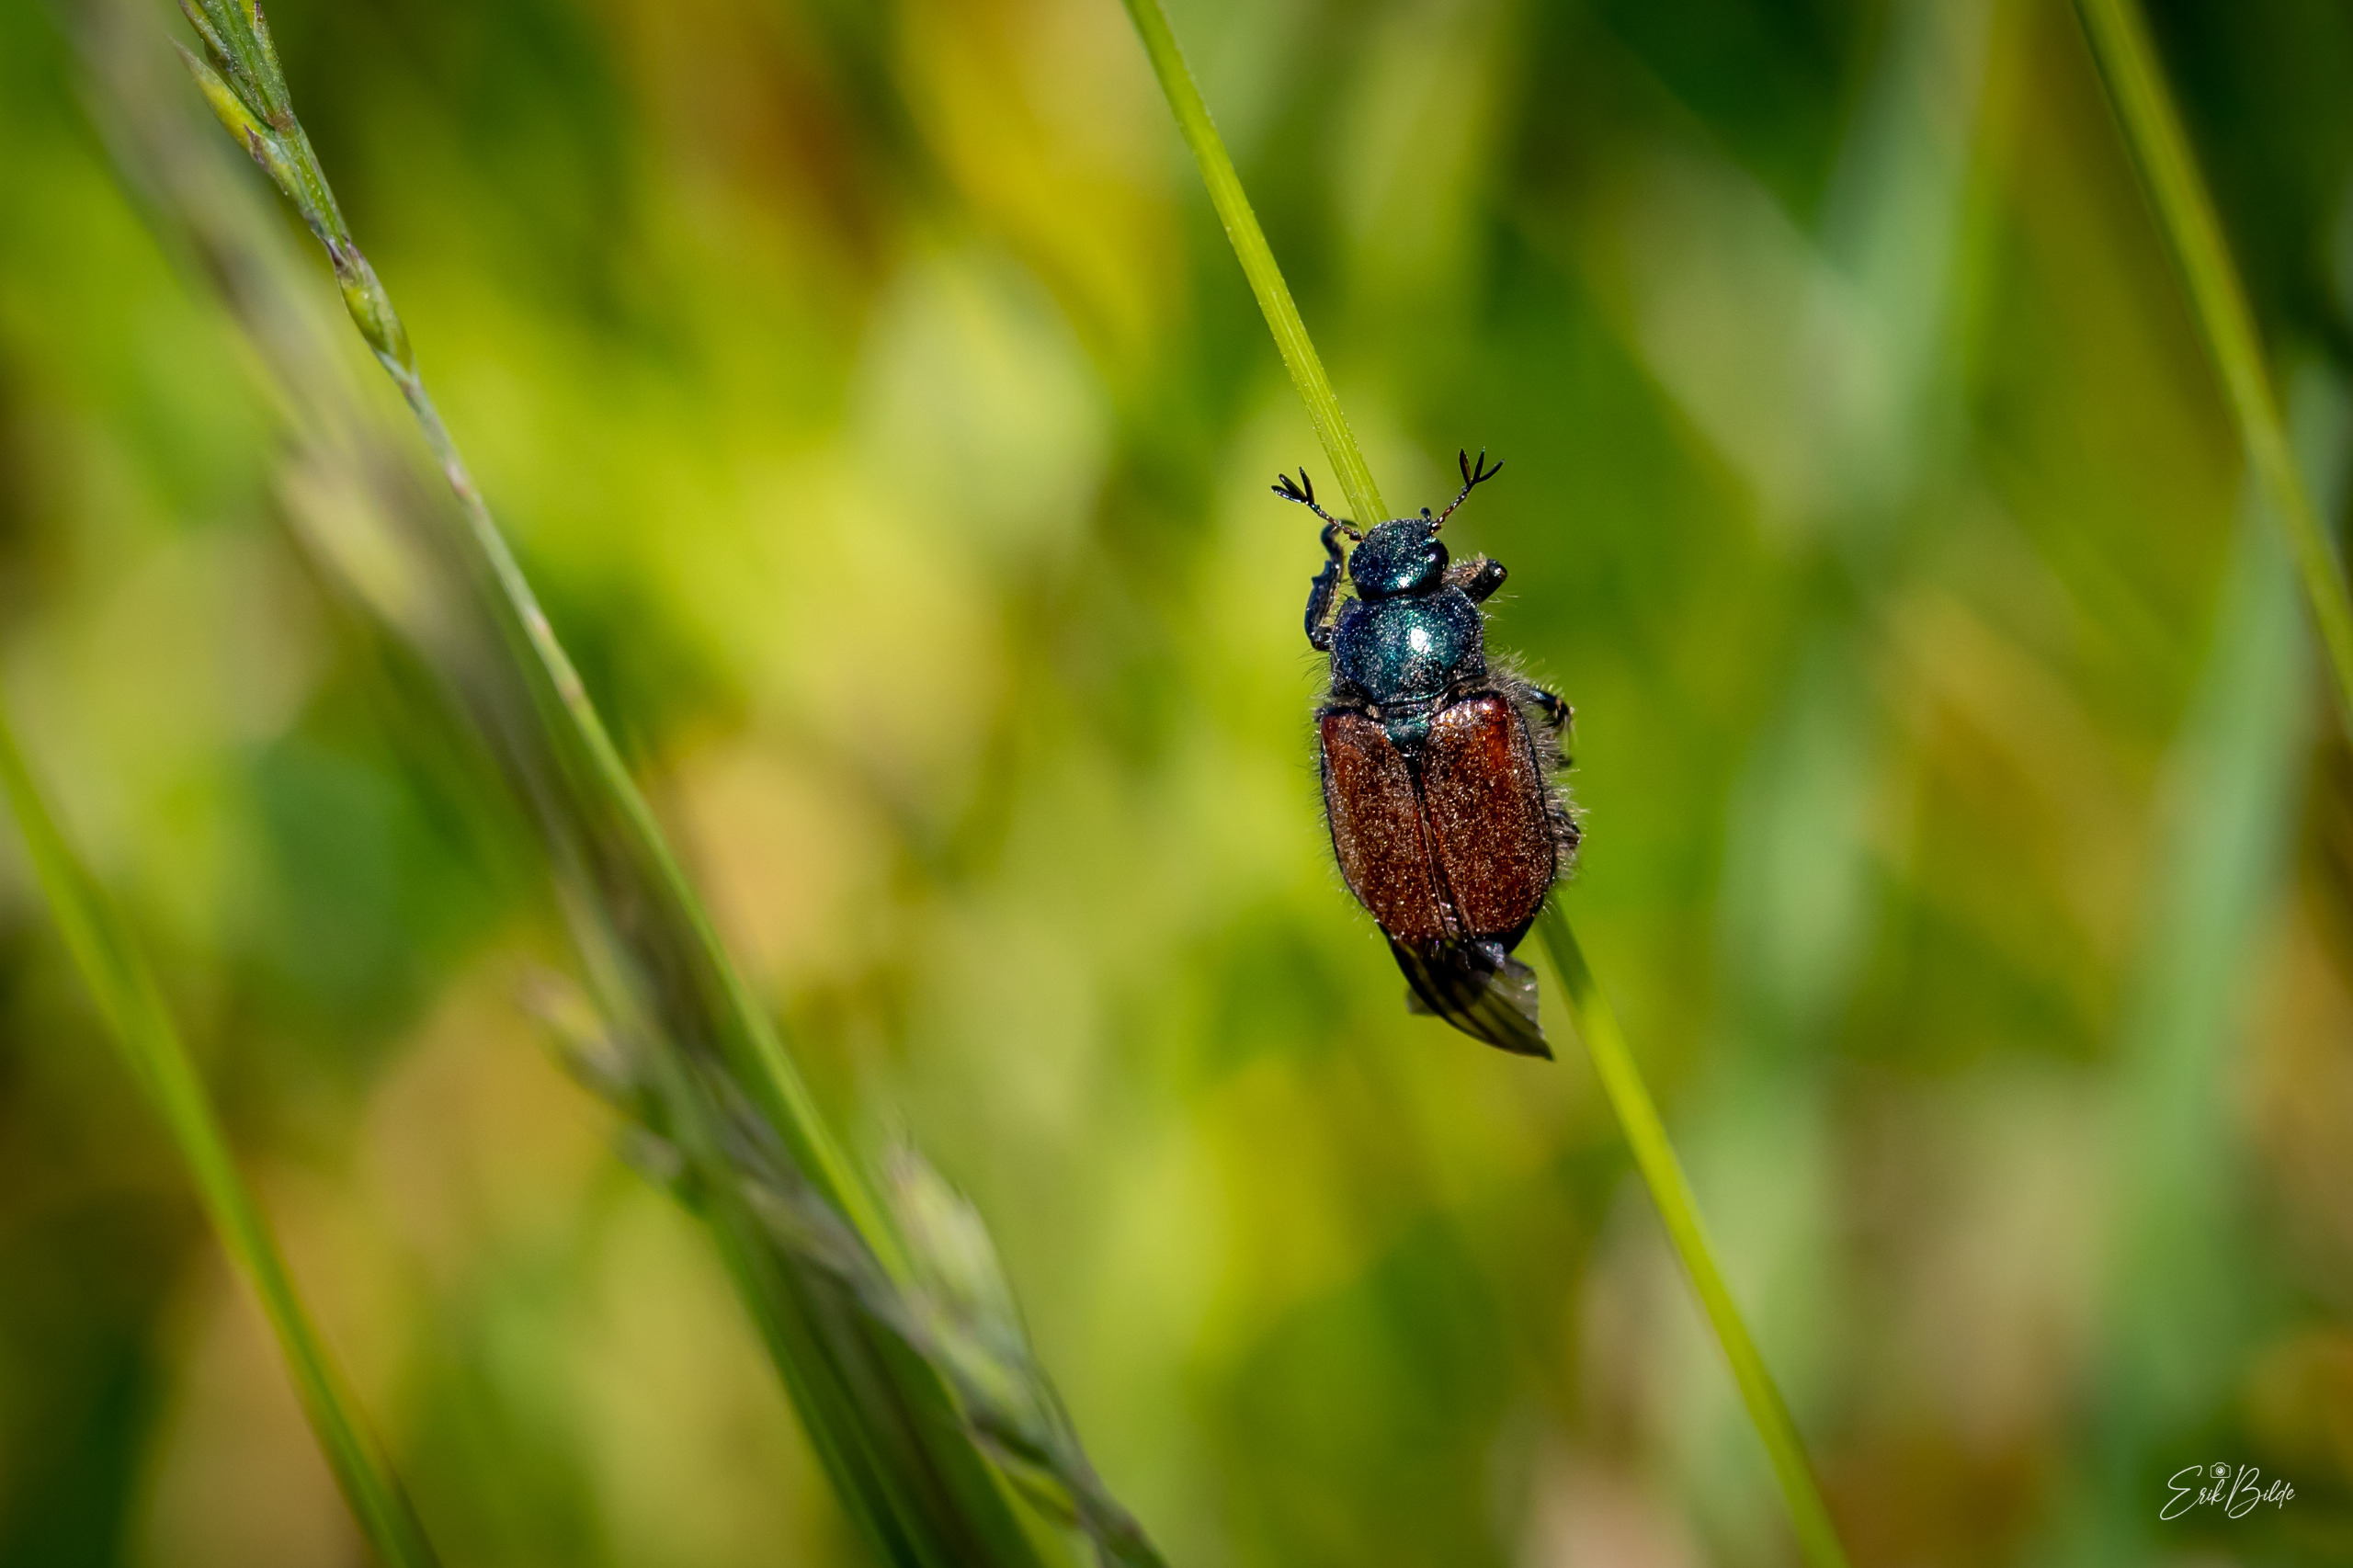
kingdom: Animalia
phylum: Arthropoda
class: Insecta
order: Coleoptera
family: Scarabaeidae
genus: Phyllopertha
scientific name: Phyllopertha horticola
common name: Gåsebille
